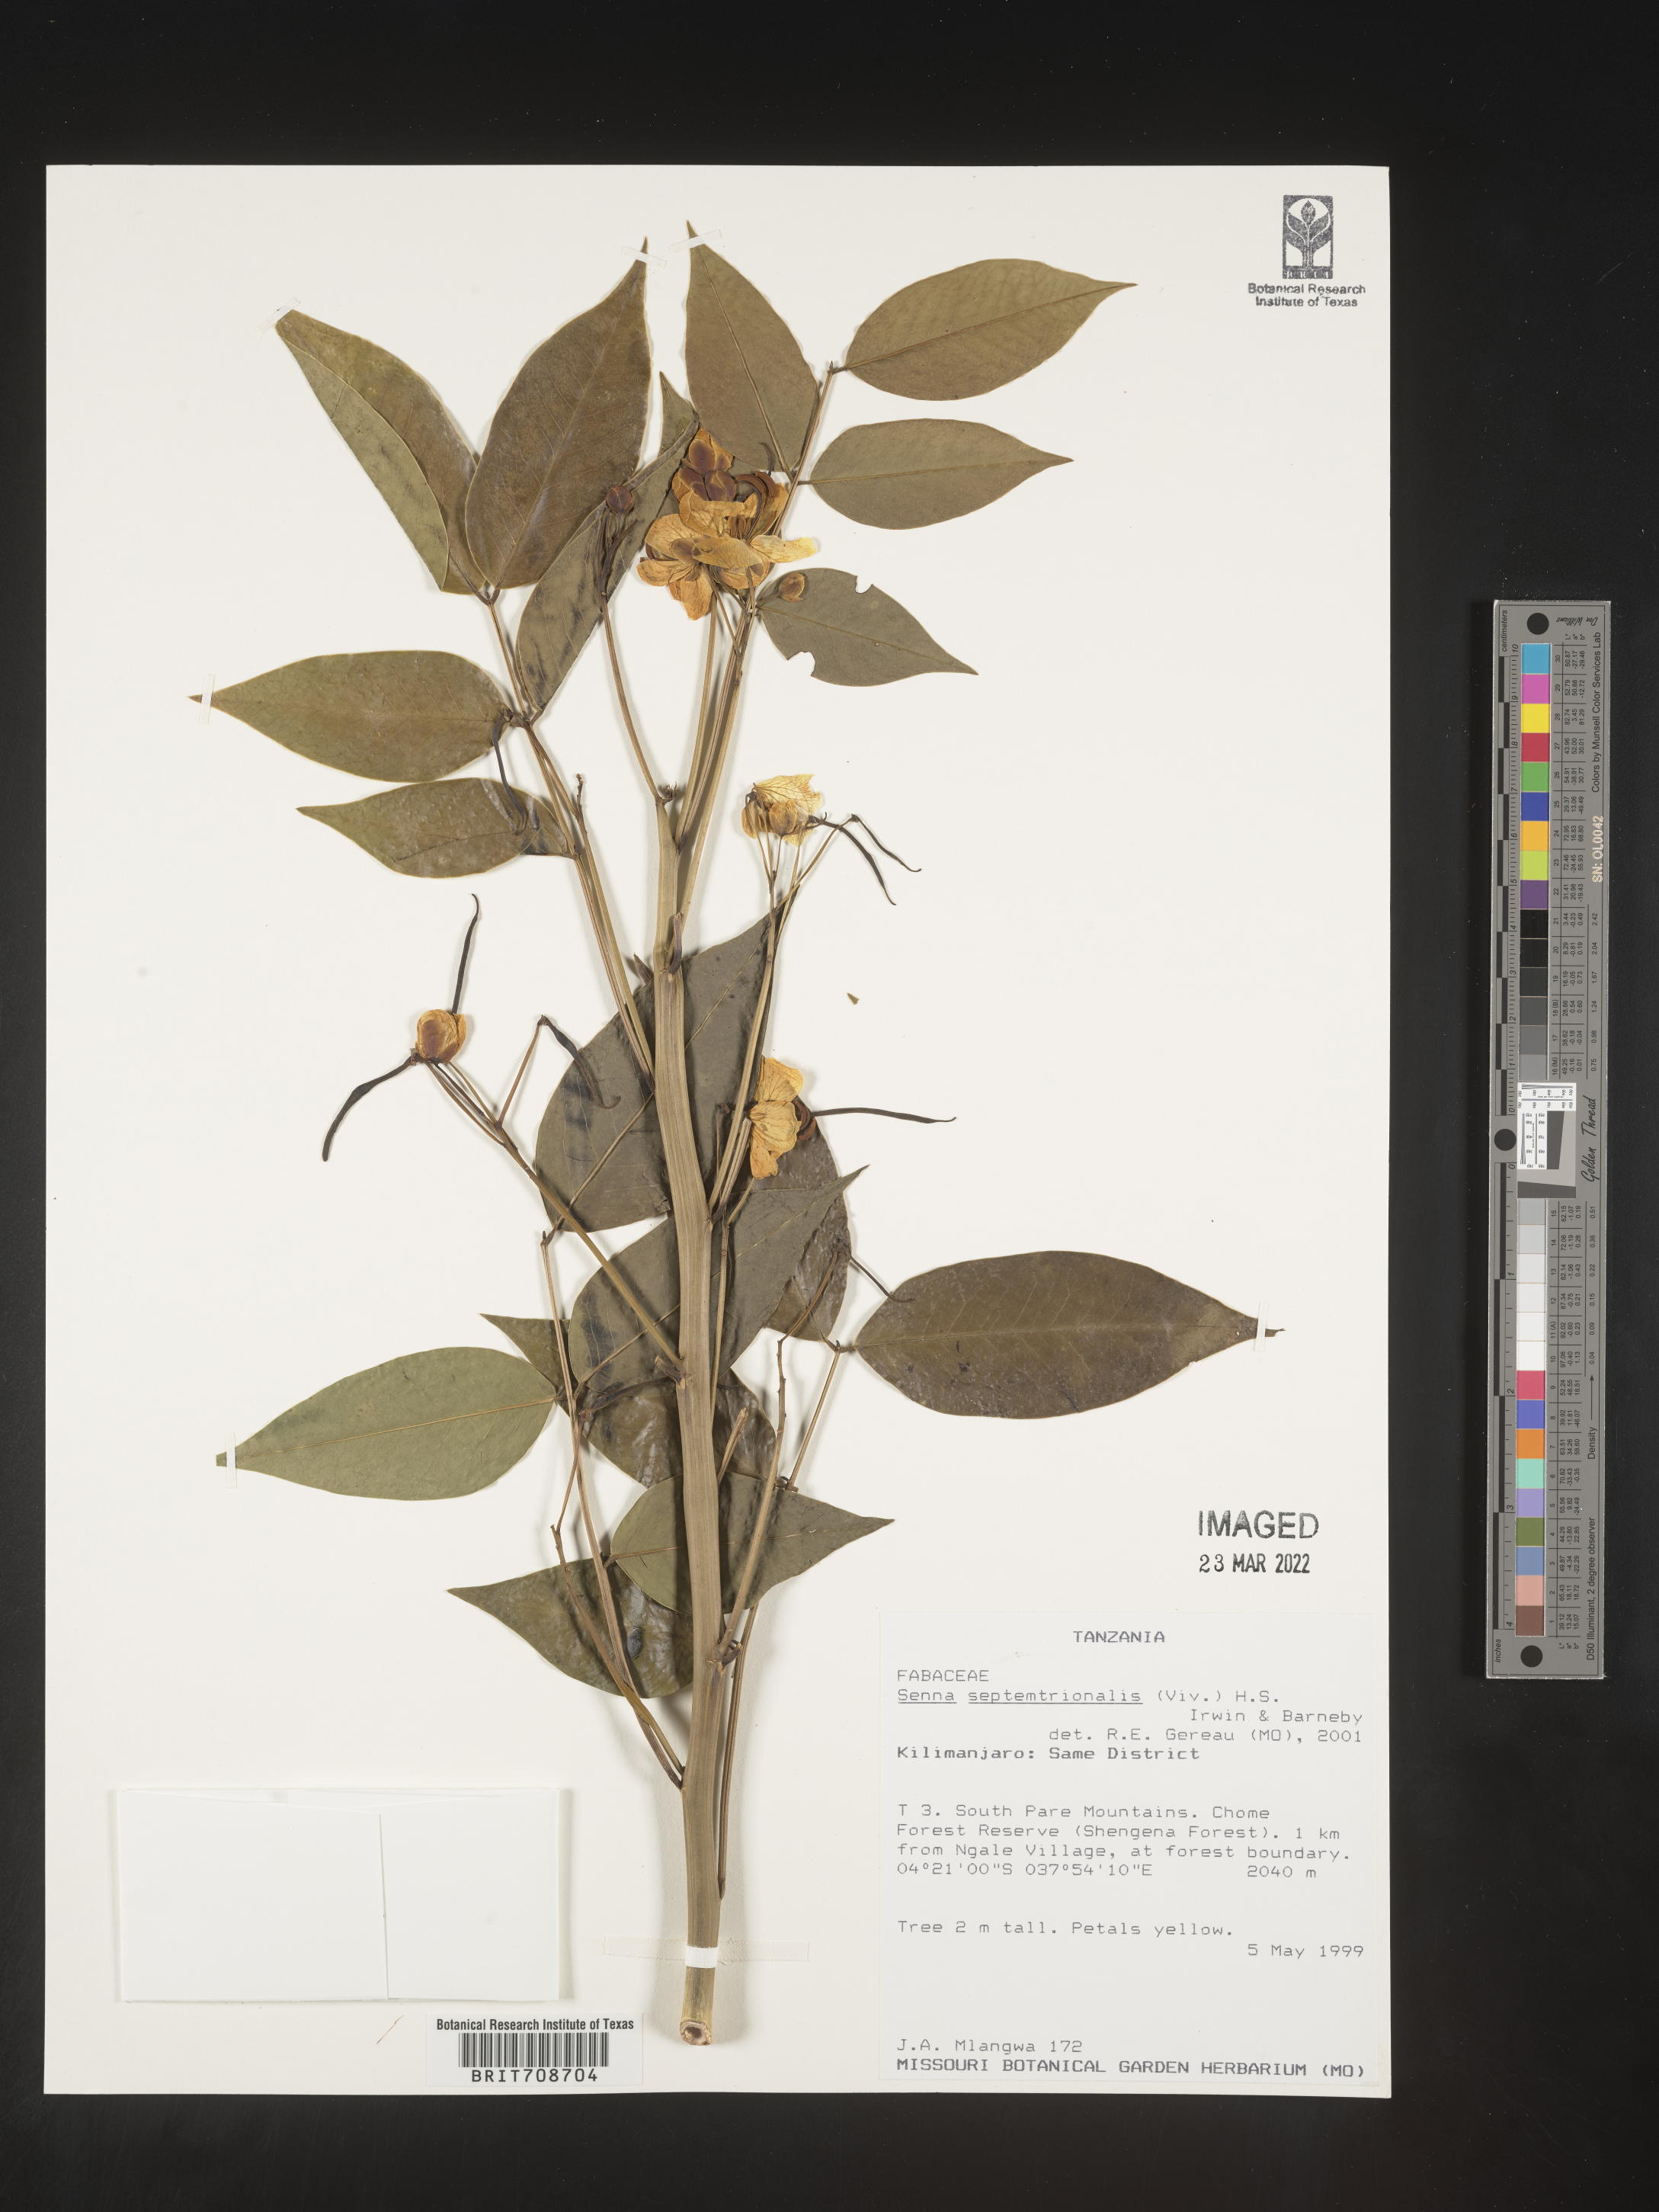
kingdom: Plantae
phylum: Tracheophyta
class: Magnoliopsida
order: Fabales
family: Fabaceae
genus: Senna
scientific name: Senna
